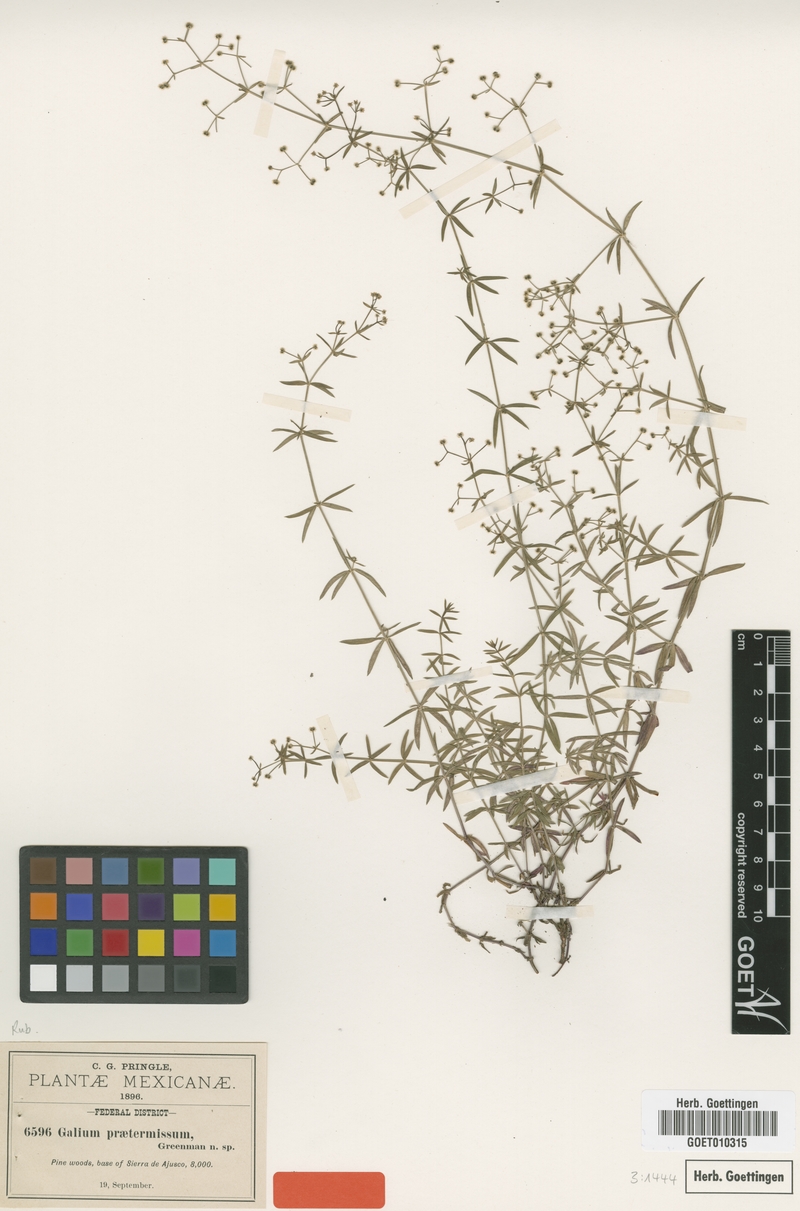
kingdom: Plantae
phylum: Tracheophyta
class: Magnoliopsida
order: Gentianales
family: Rubiaceae
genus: Galium
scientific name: Galium praetermissum
